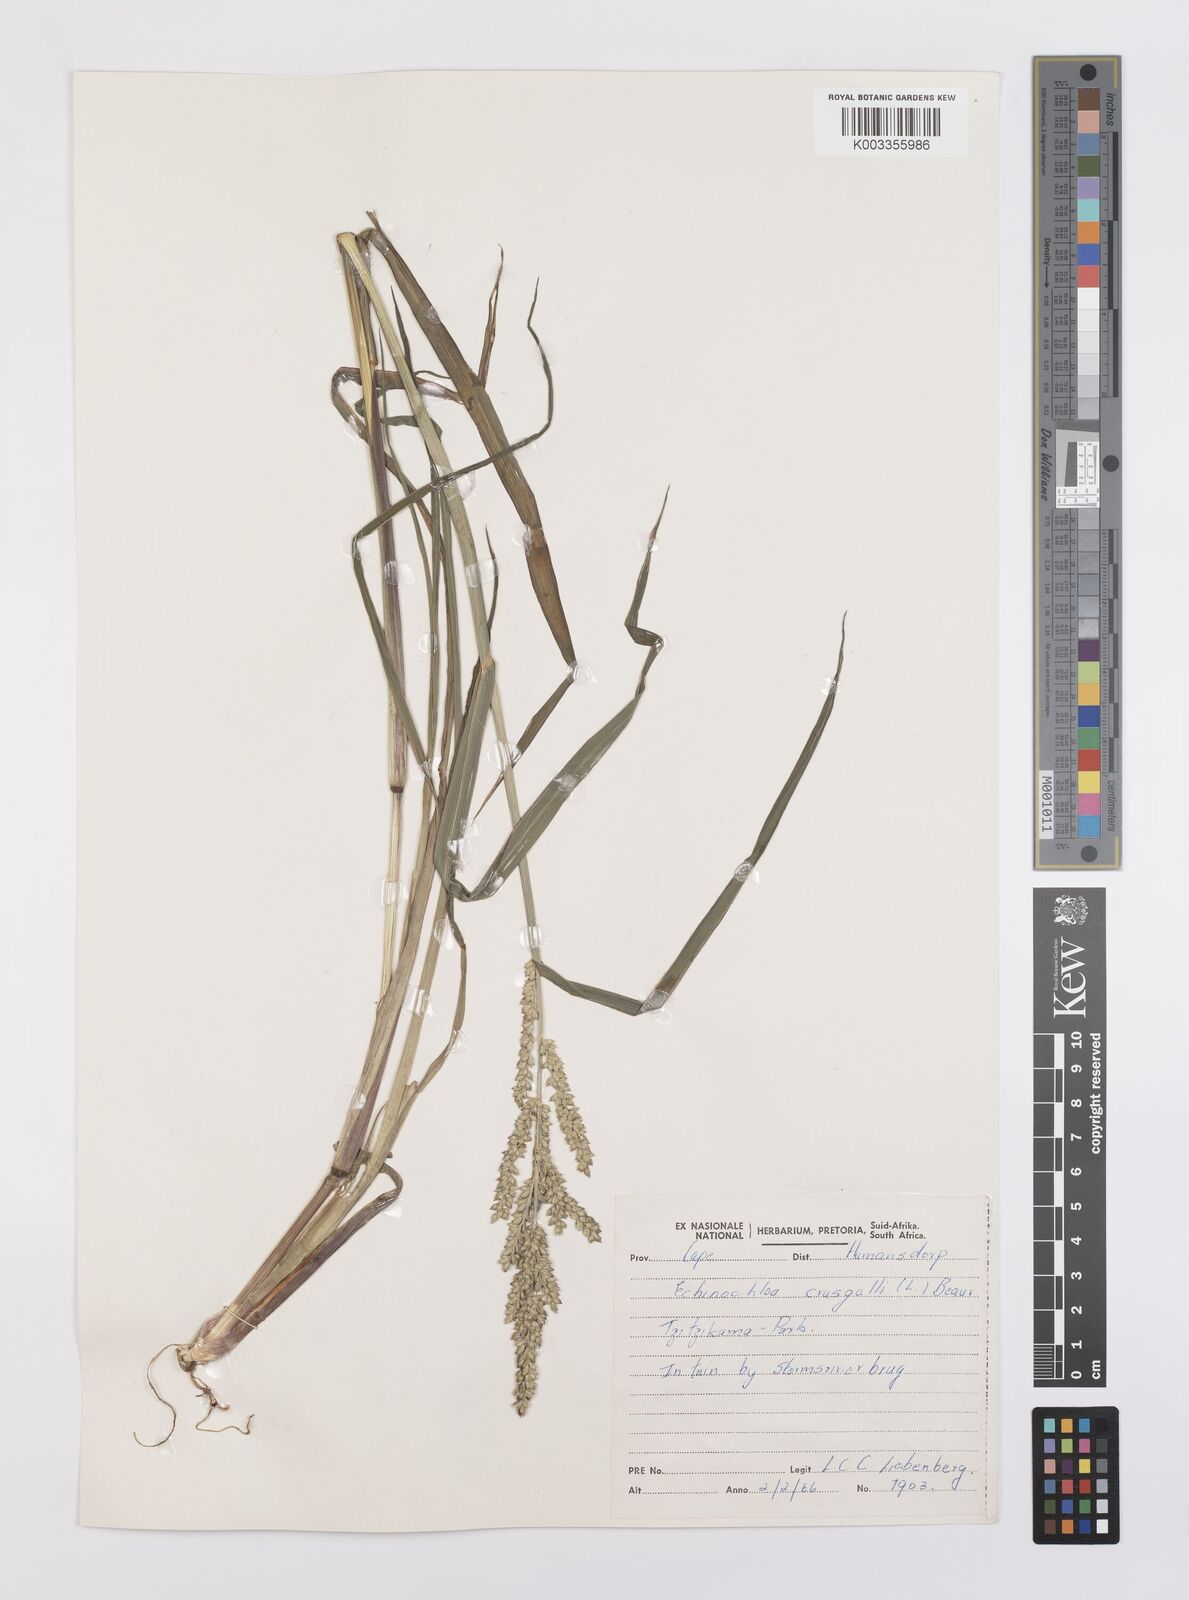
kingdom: Plantae
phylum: Tracheophyta
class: Liliopsida
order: Poales
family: Poaceae
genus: Echinochloa
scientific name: Echinochloa crus-galli
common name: Cockspur
